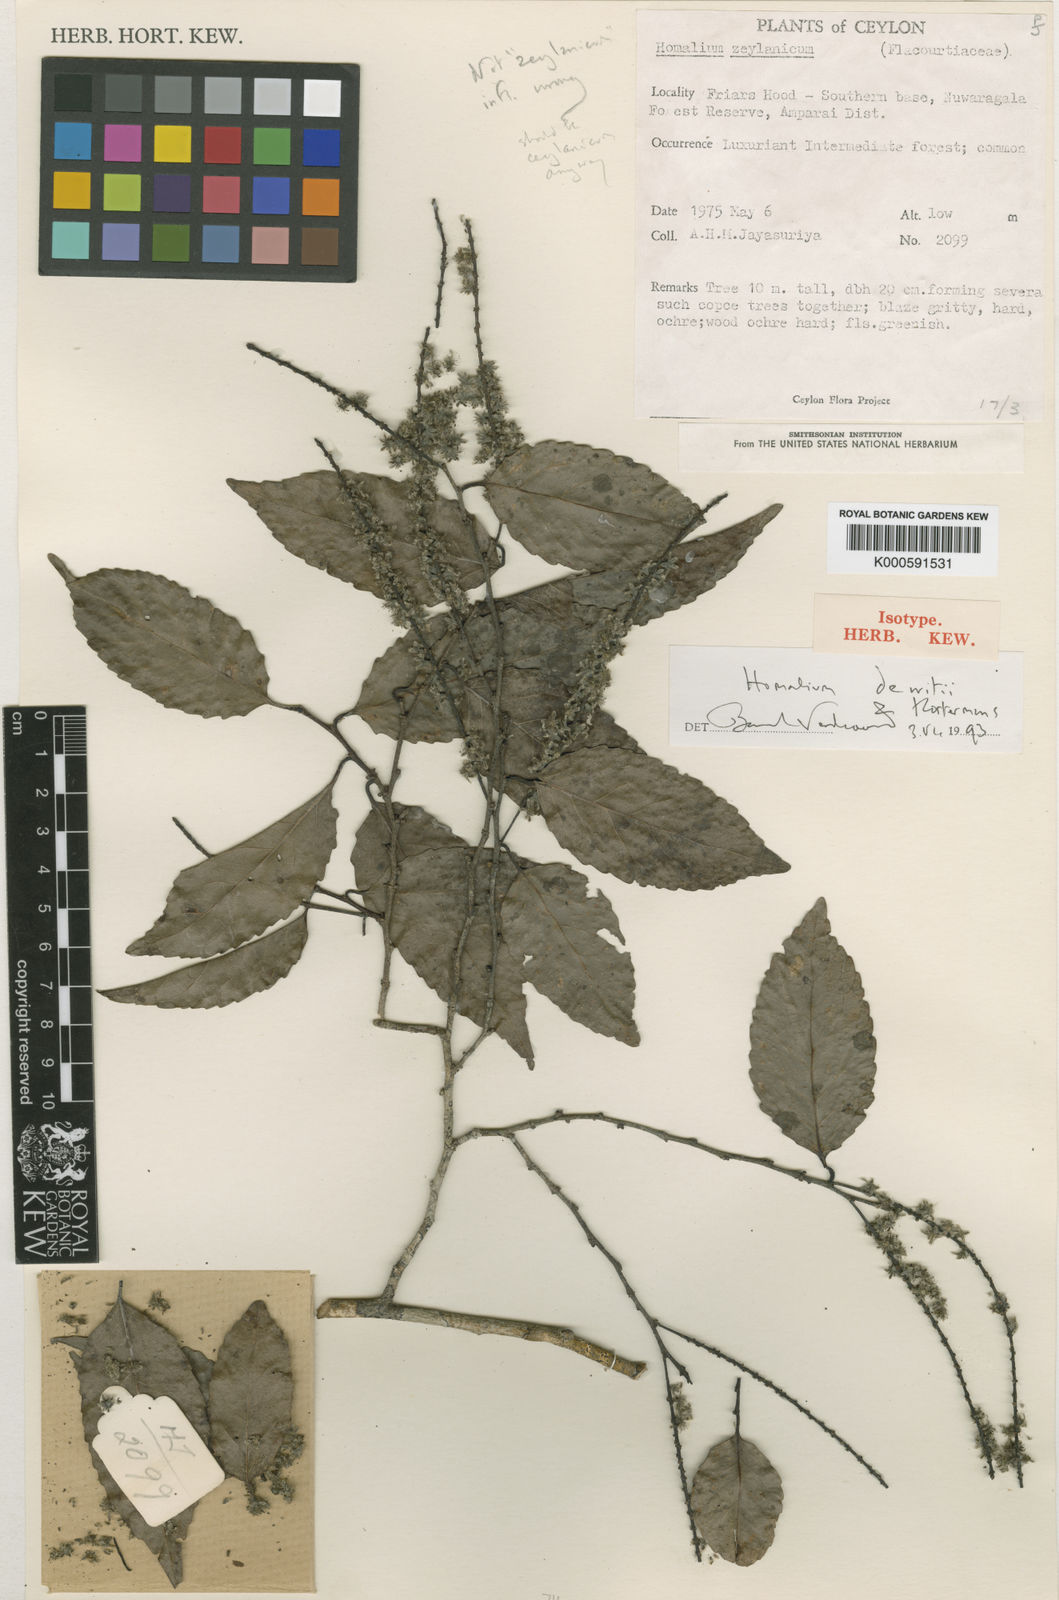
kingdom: Plantae
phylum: Tracheophyta
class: Magnoliopsida
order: Malpighiales
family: Salicaceae
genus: Homalium
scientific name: Homalium dewitii
